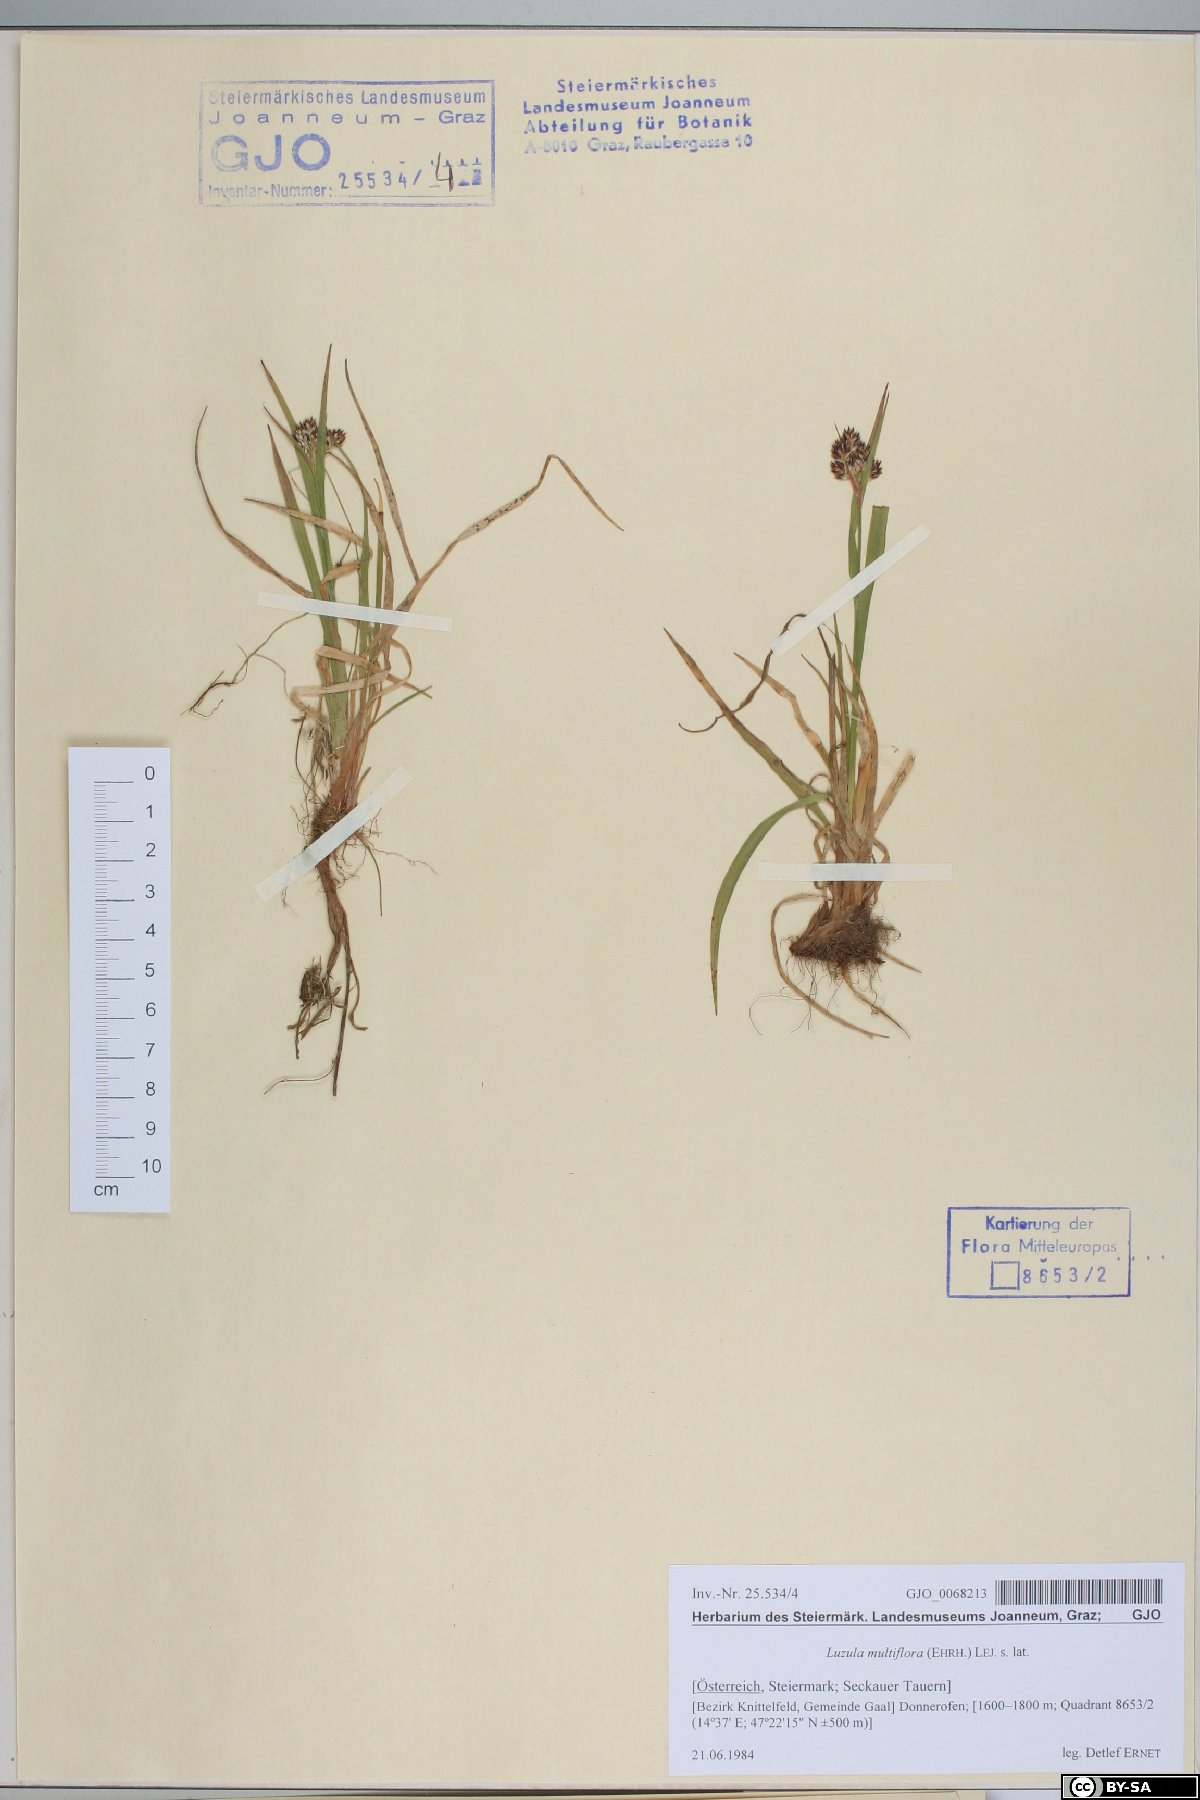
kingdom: Plantae
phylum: Tracheophyta
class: Liliopsida
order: Poales
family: Juncaceae
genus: Luzula
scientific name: Luzula multiflora
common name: Heath wood-rush
